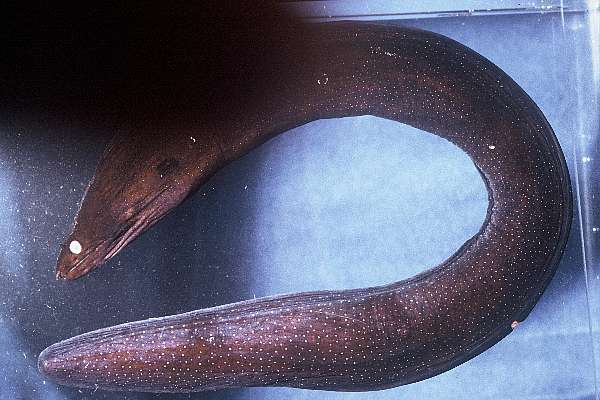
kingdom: Animalia
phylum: Chordata
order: Anguilliformes
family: Muraenidae
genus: Muraena
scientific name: Muraena helena
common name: Mediterranean moray
